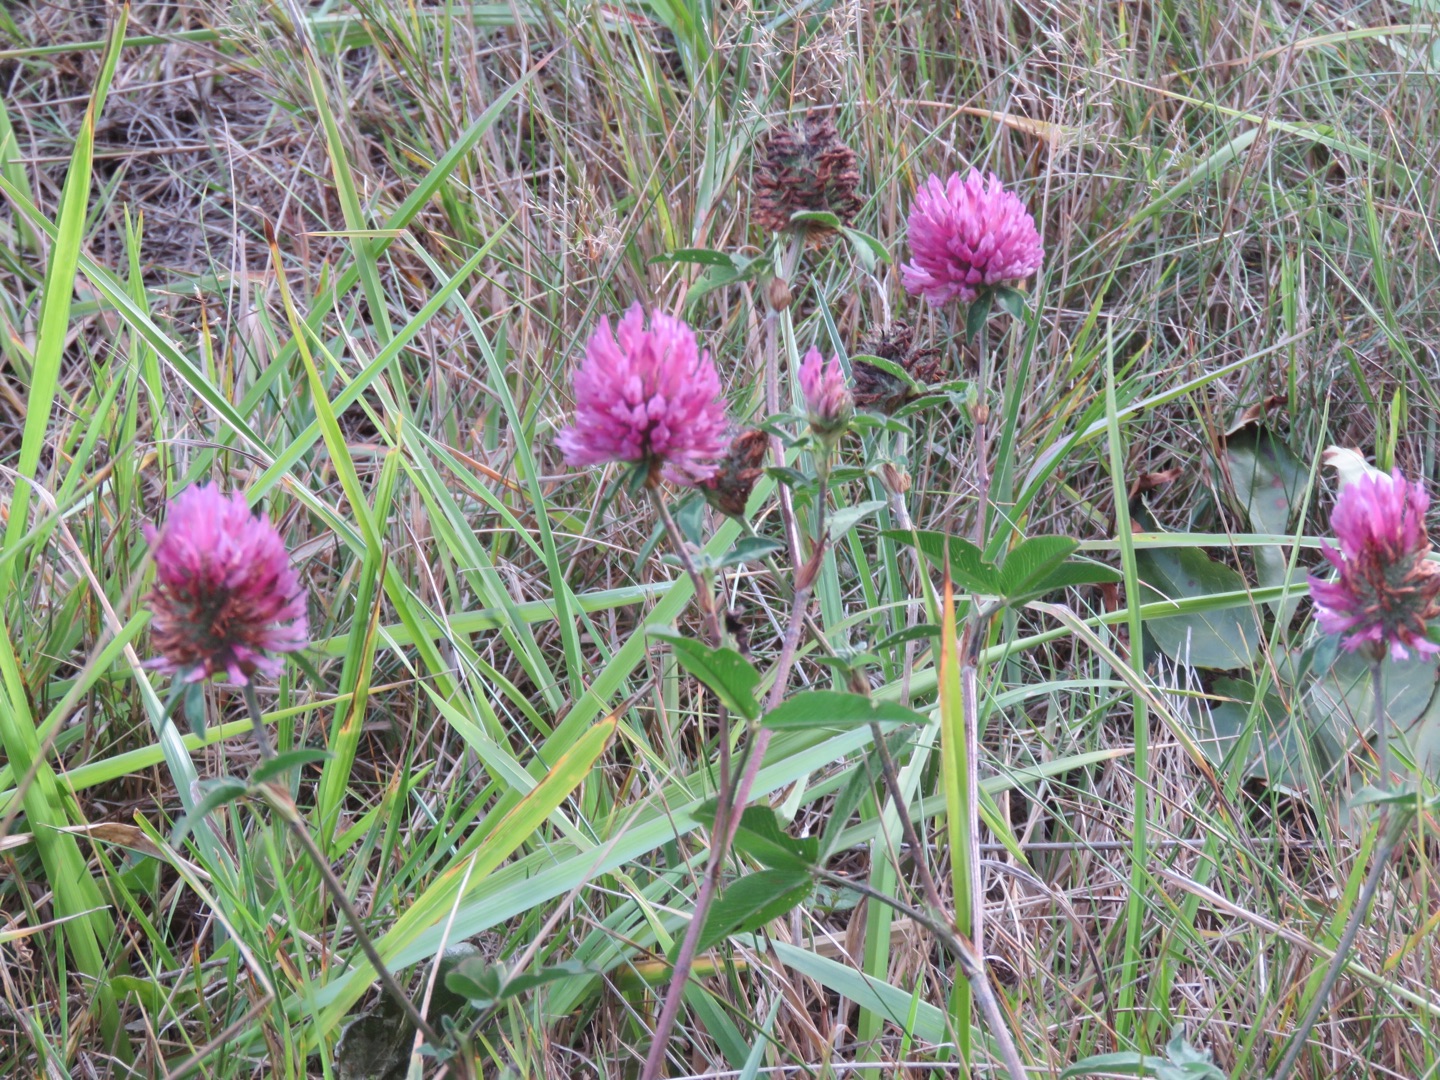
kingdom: Plantae
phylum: Tracheophyta
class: Magnoliopsida
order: Fabales
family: Fabaceae
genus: Trifolium
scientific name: Trifolium pratense
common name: Rød-kløver
